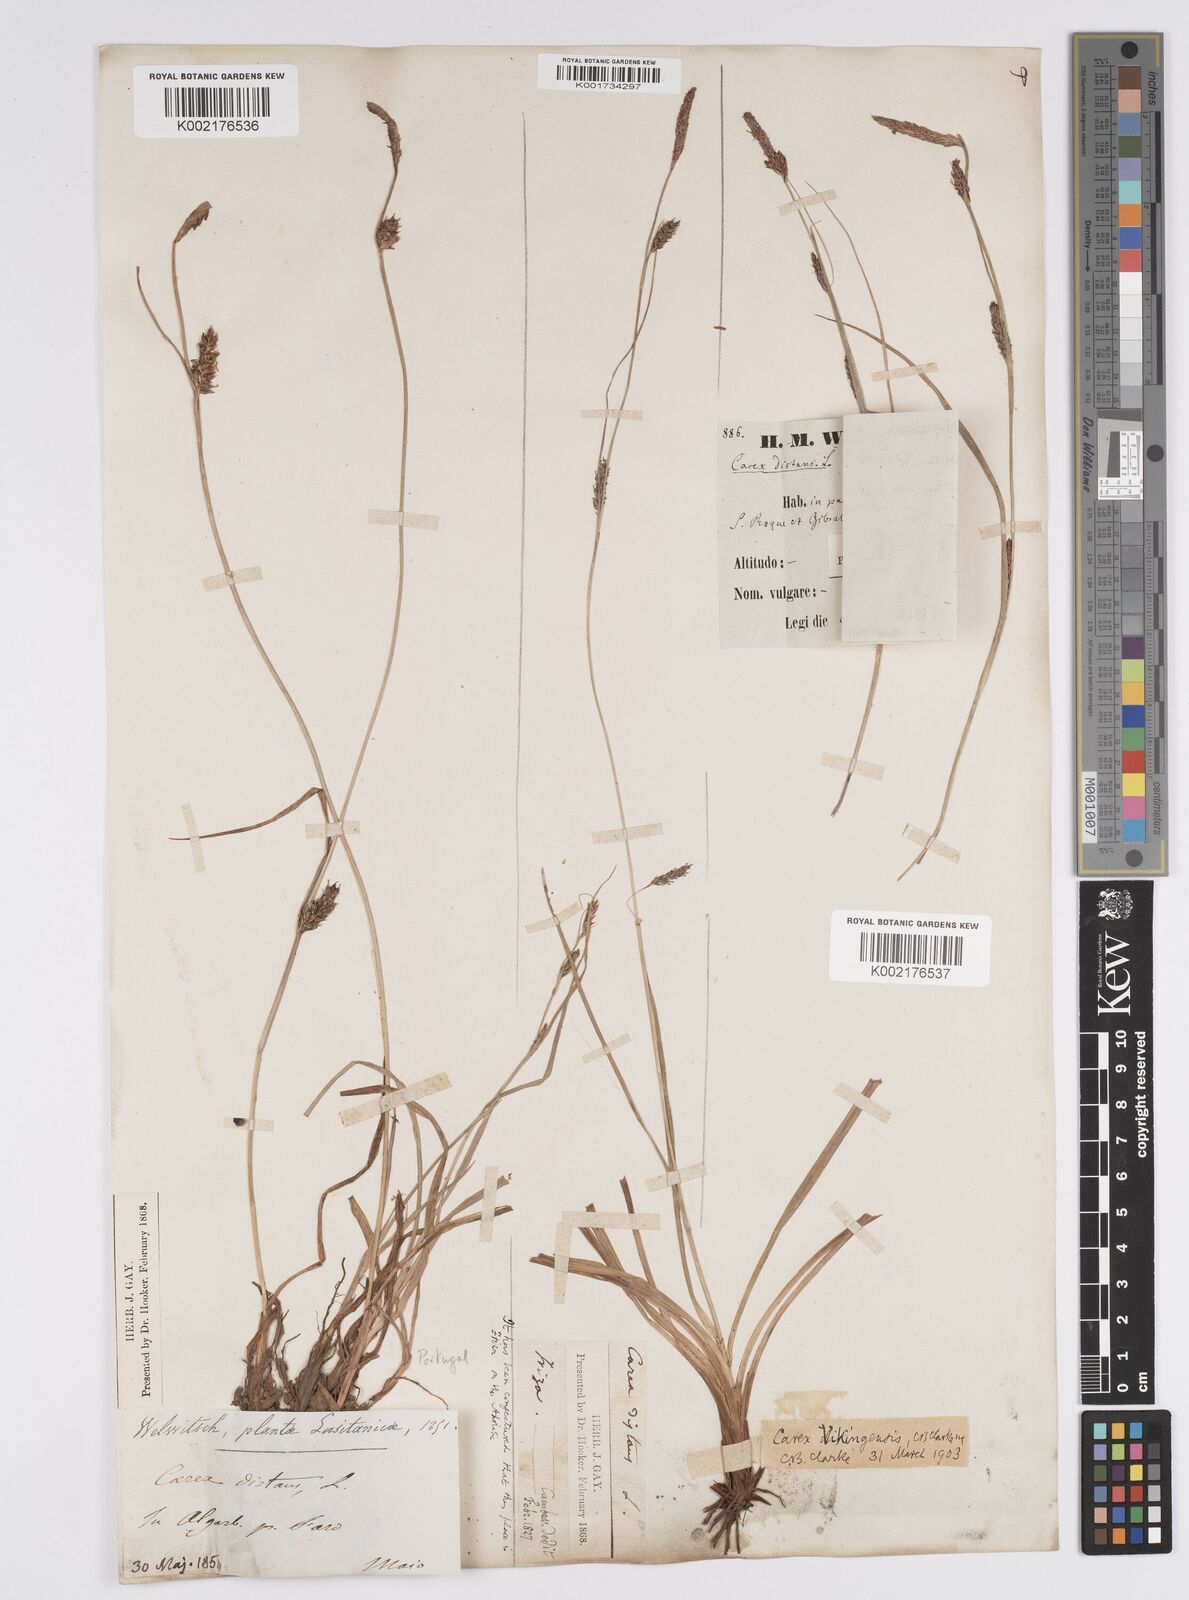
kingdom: Plantae
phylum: Tracheophyta
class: Liliopsida
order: Poales
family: Cyperaceae
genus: Carex
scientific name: Carex distans
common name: Distant sedge
